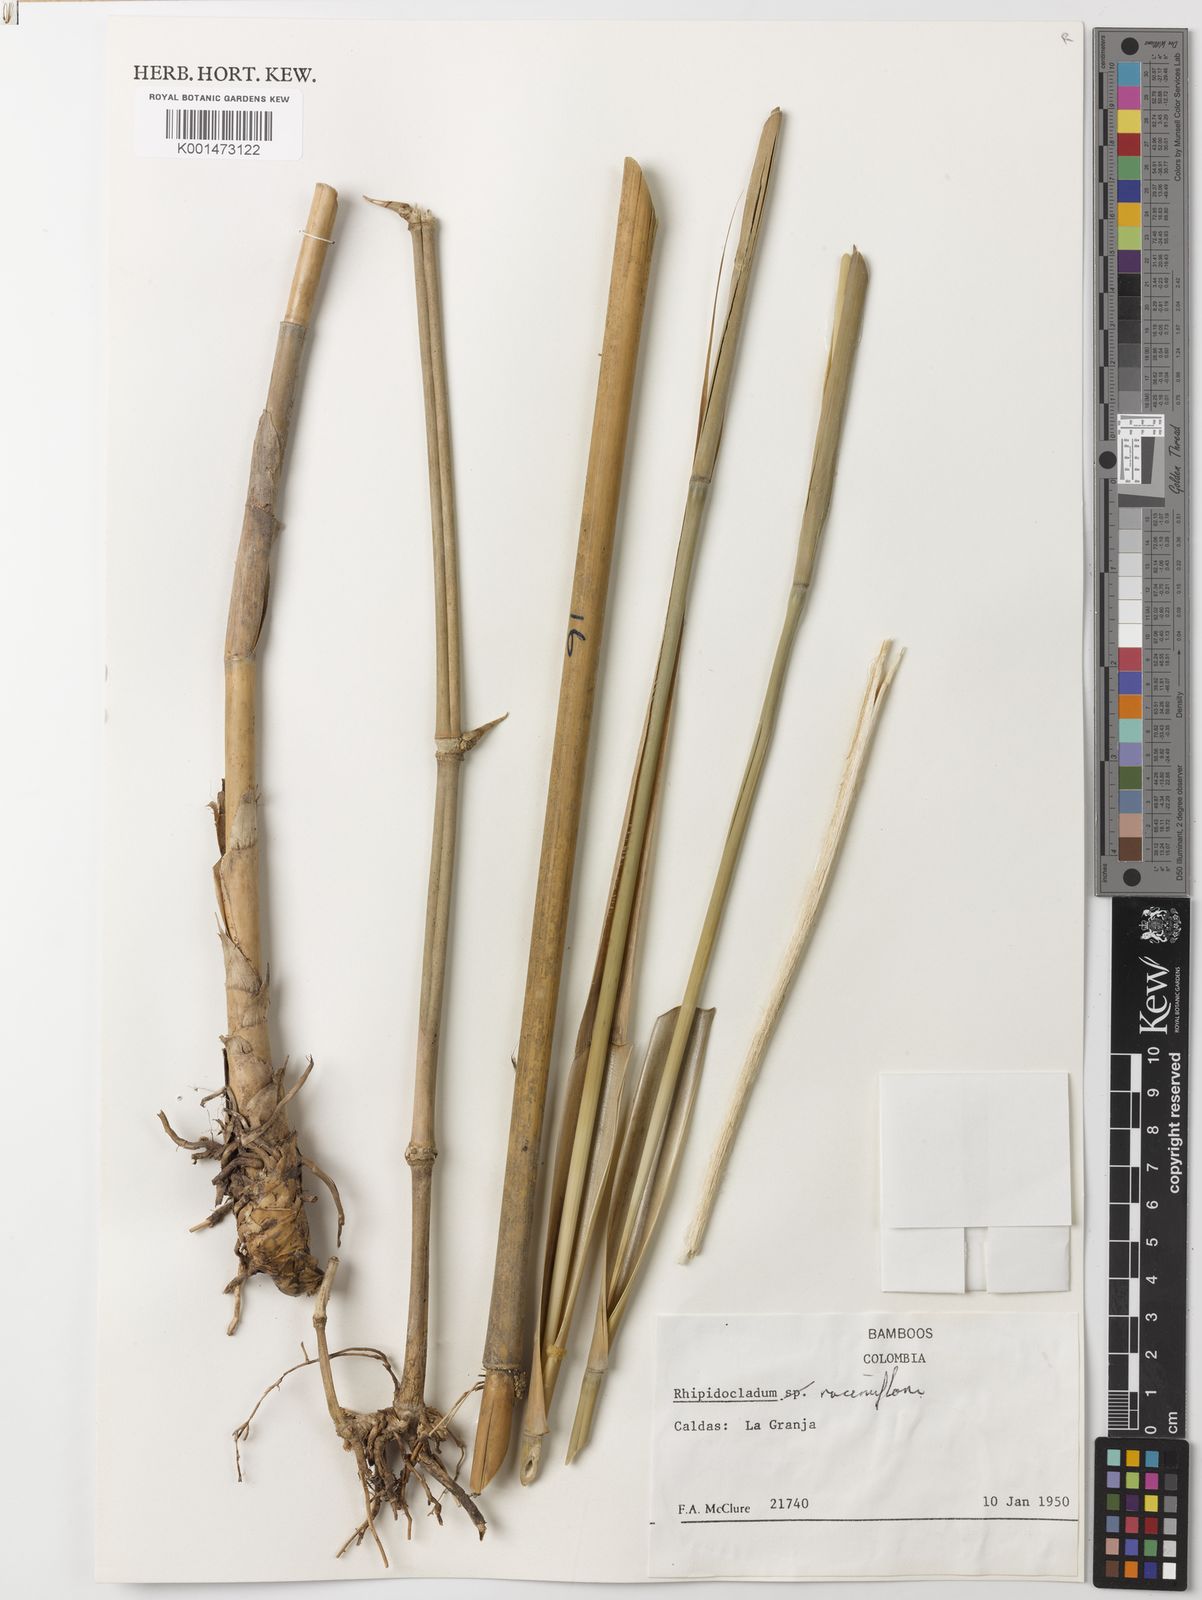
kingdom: Plantae
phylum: Tracheophyta
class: Liliopsida
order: Poales
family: Poaceae
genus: Rhipidocladum
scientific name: Rhipidocladum racemiflorum
